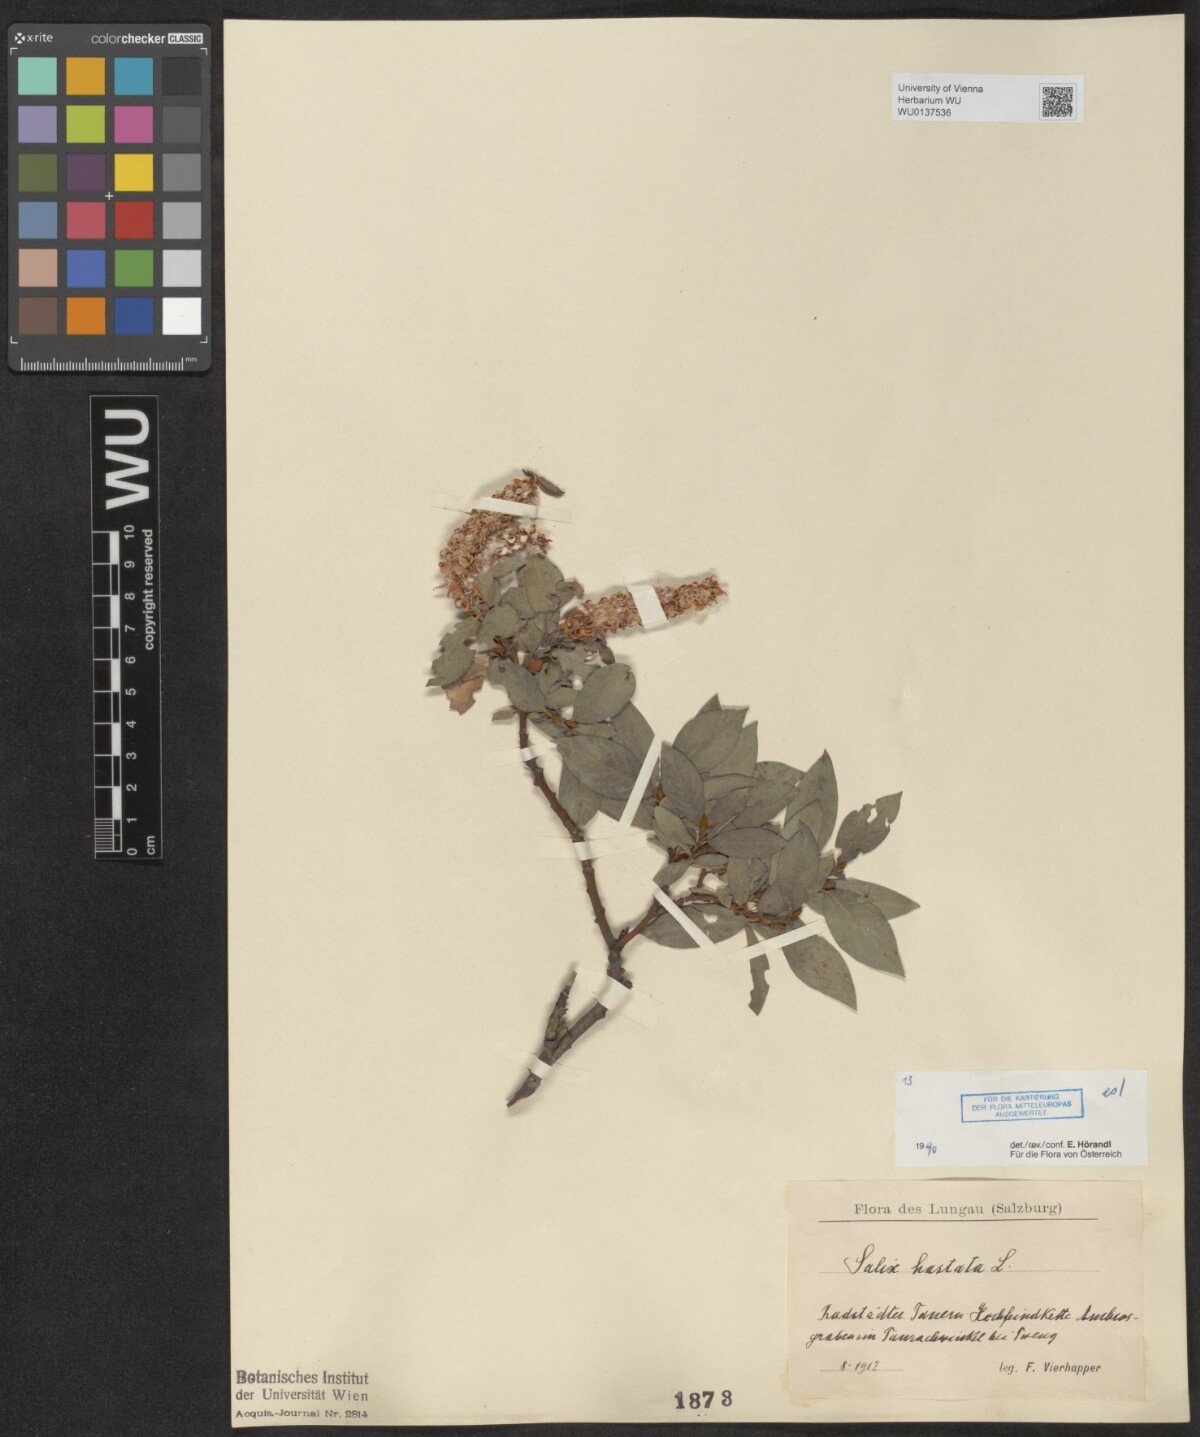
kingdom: Plantae
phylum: Tracheophyta
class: Magnoliopsida
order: Malpighiales
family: Salicaceae
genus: Salix
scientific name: Salix hastata
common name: Halberd willow
